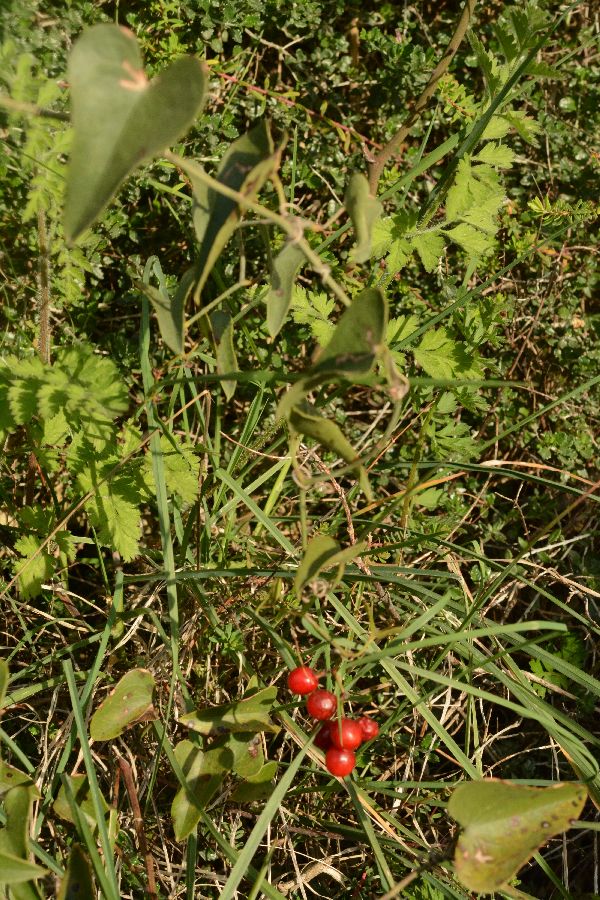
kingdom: Plantae
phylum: Tracheophyta
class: Liliopsida
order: Liliales
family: Smilacaceae
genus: Smilax
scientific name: Smilax aspera
